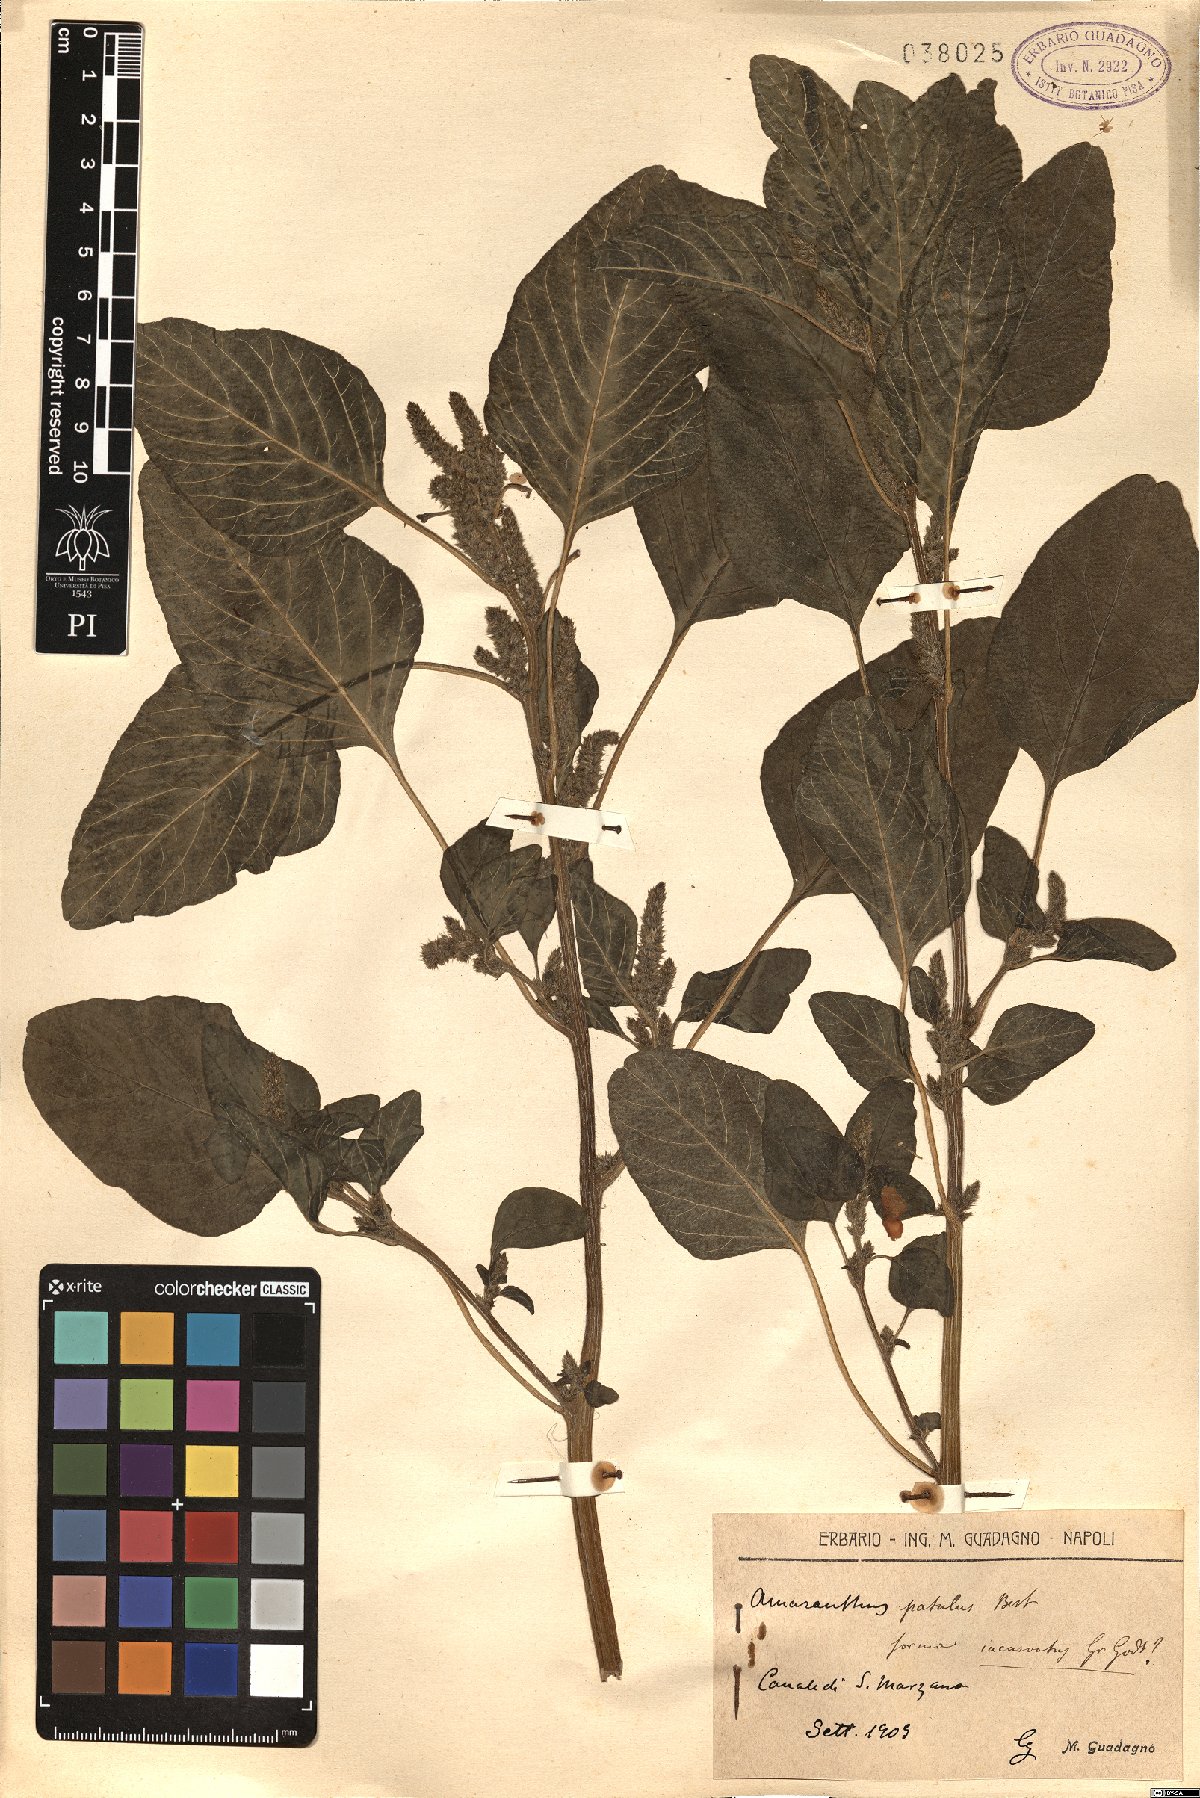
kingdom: Plantae
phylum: Tracheophyta
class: Magnoliopsida
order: Caryophyllales
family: Amaranthaceae
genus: Amaranthus
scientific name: Amaranthus hybridus
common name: Green amaranth
